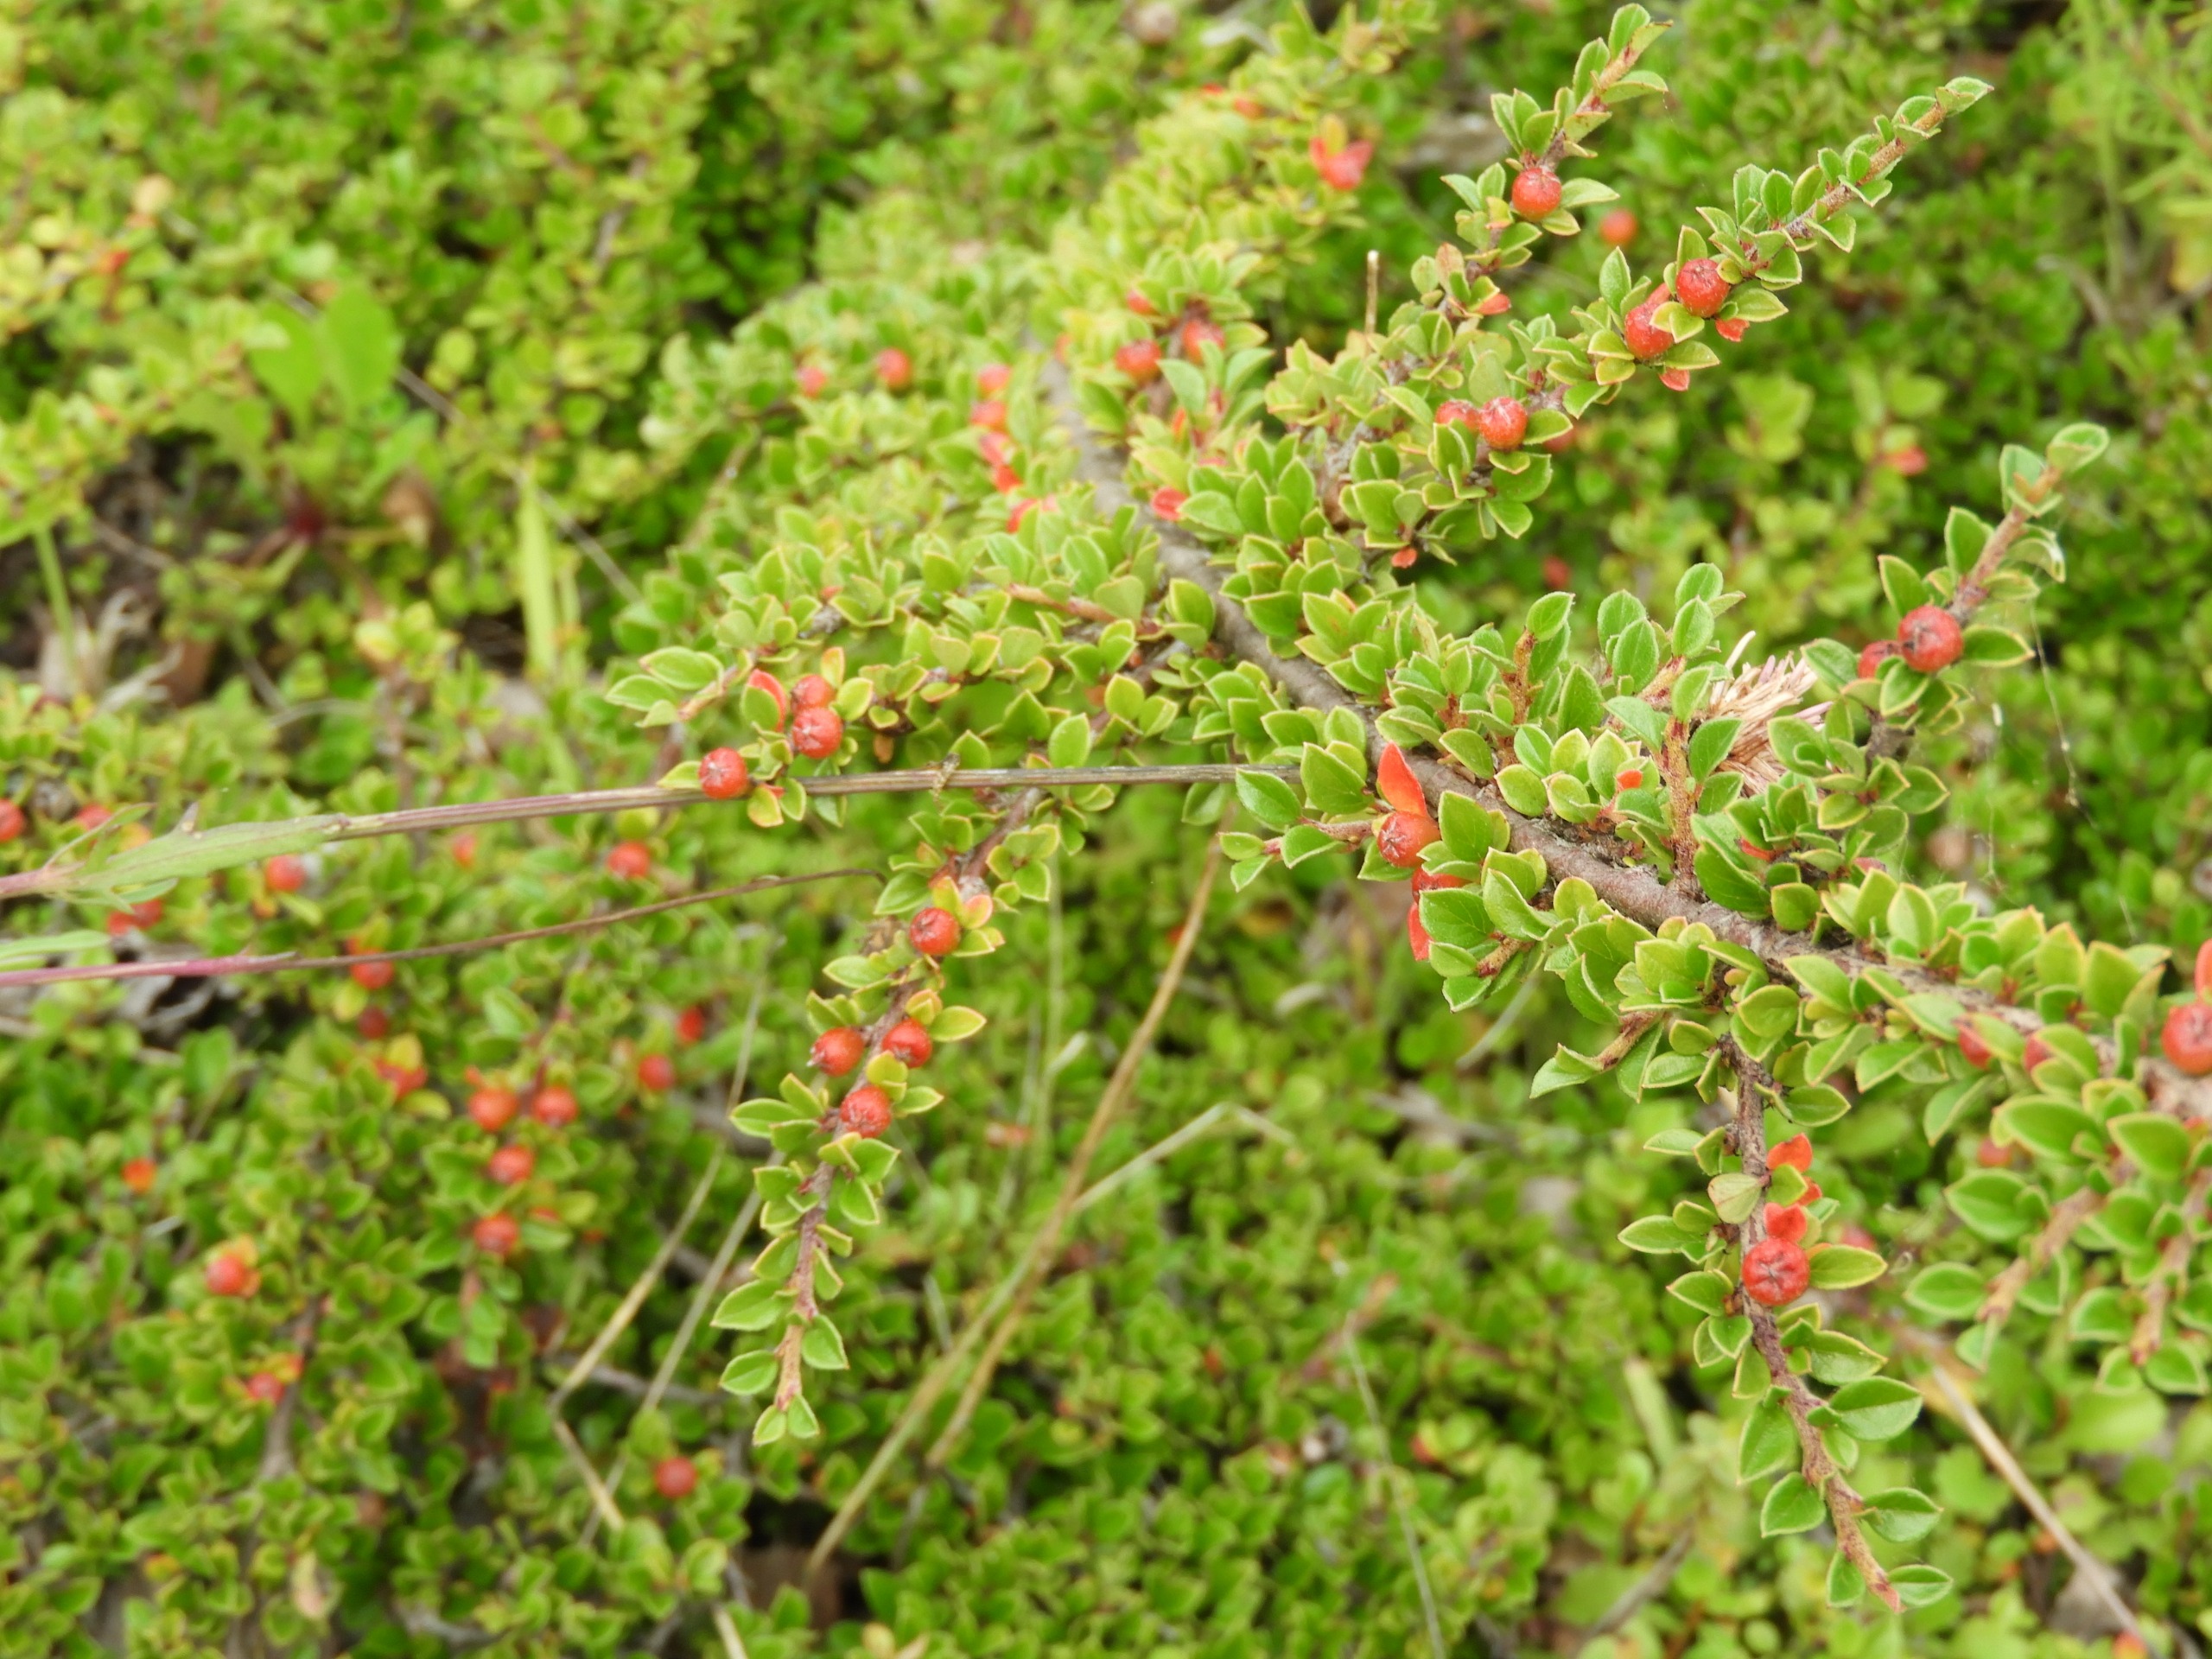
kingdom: Plantae
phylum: Tracheophyta
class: Magnoliopsida
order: Rosales
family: Rosaceae
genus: Cotoneaster
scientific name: Cotoneaster horizontalis
